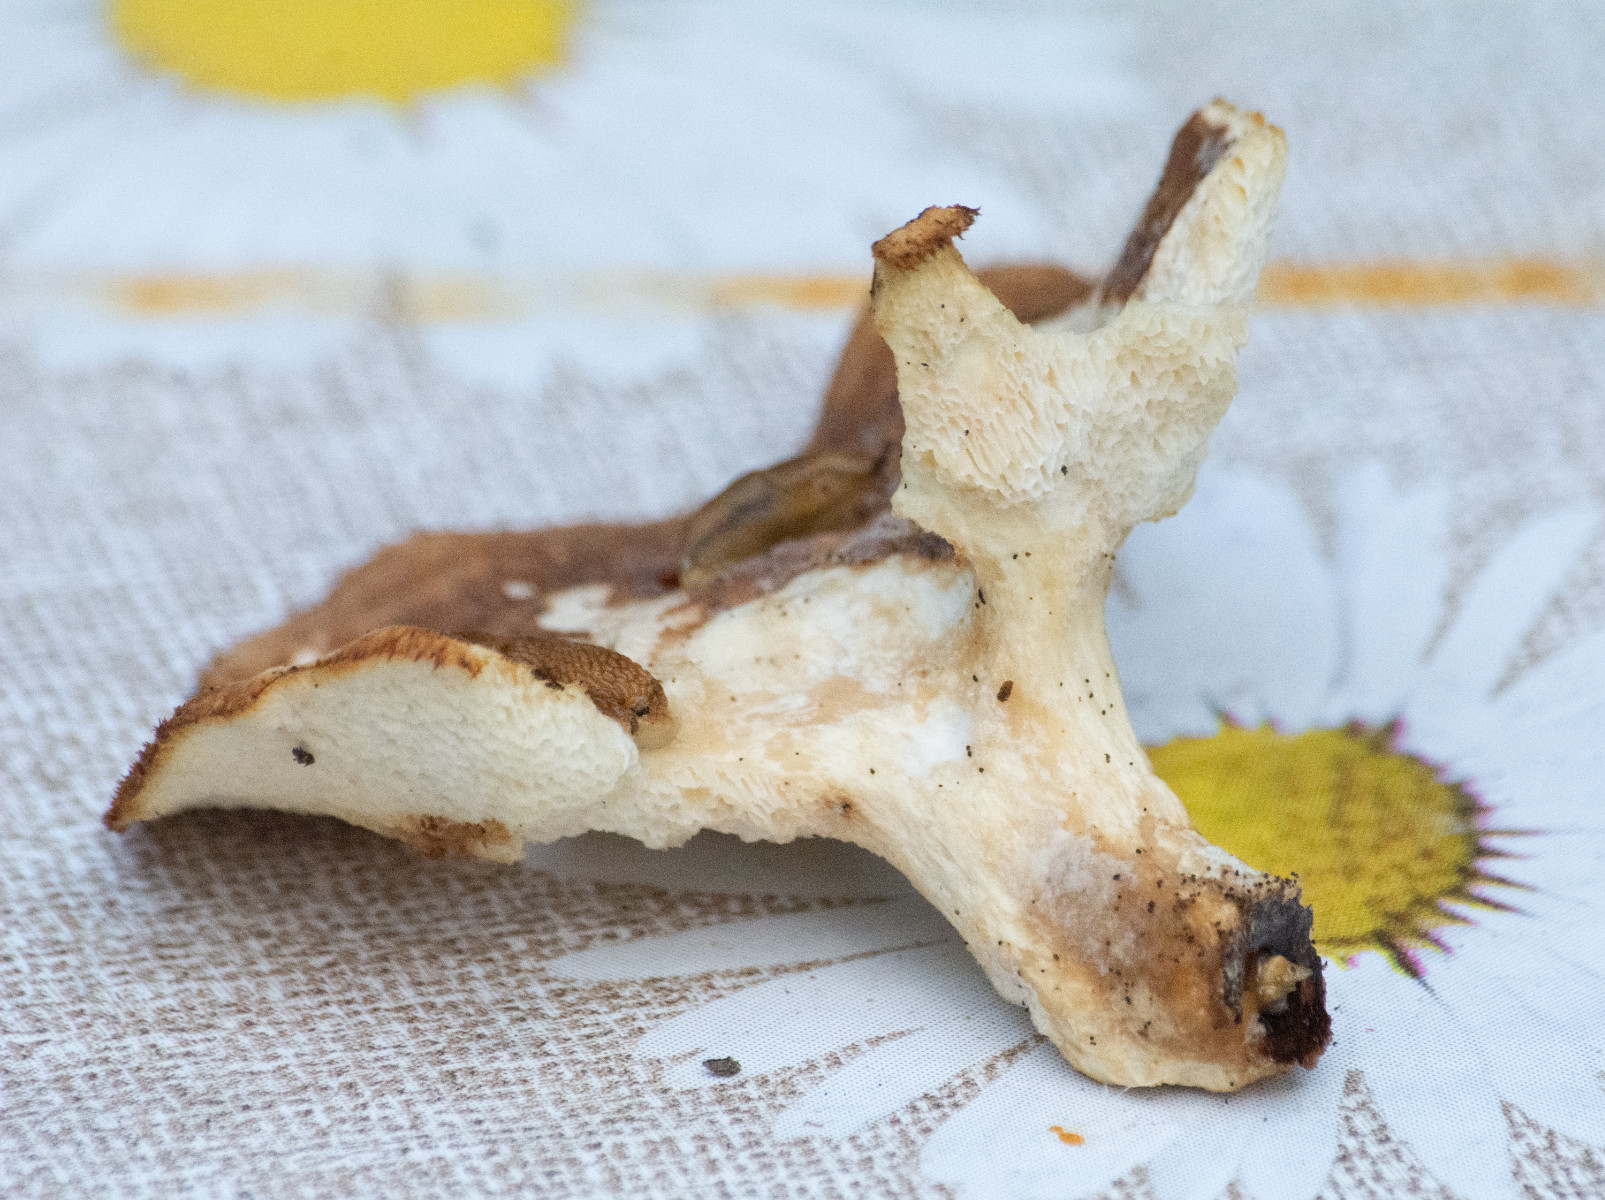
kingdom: Fungi
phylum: Basidiomycota
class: Agaricomycetes
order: Polyporales
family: Polyporaceae
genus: Polyporus
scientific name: Polyporus tuberaster
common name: knoldet stilkporesvamp
